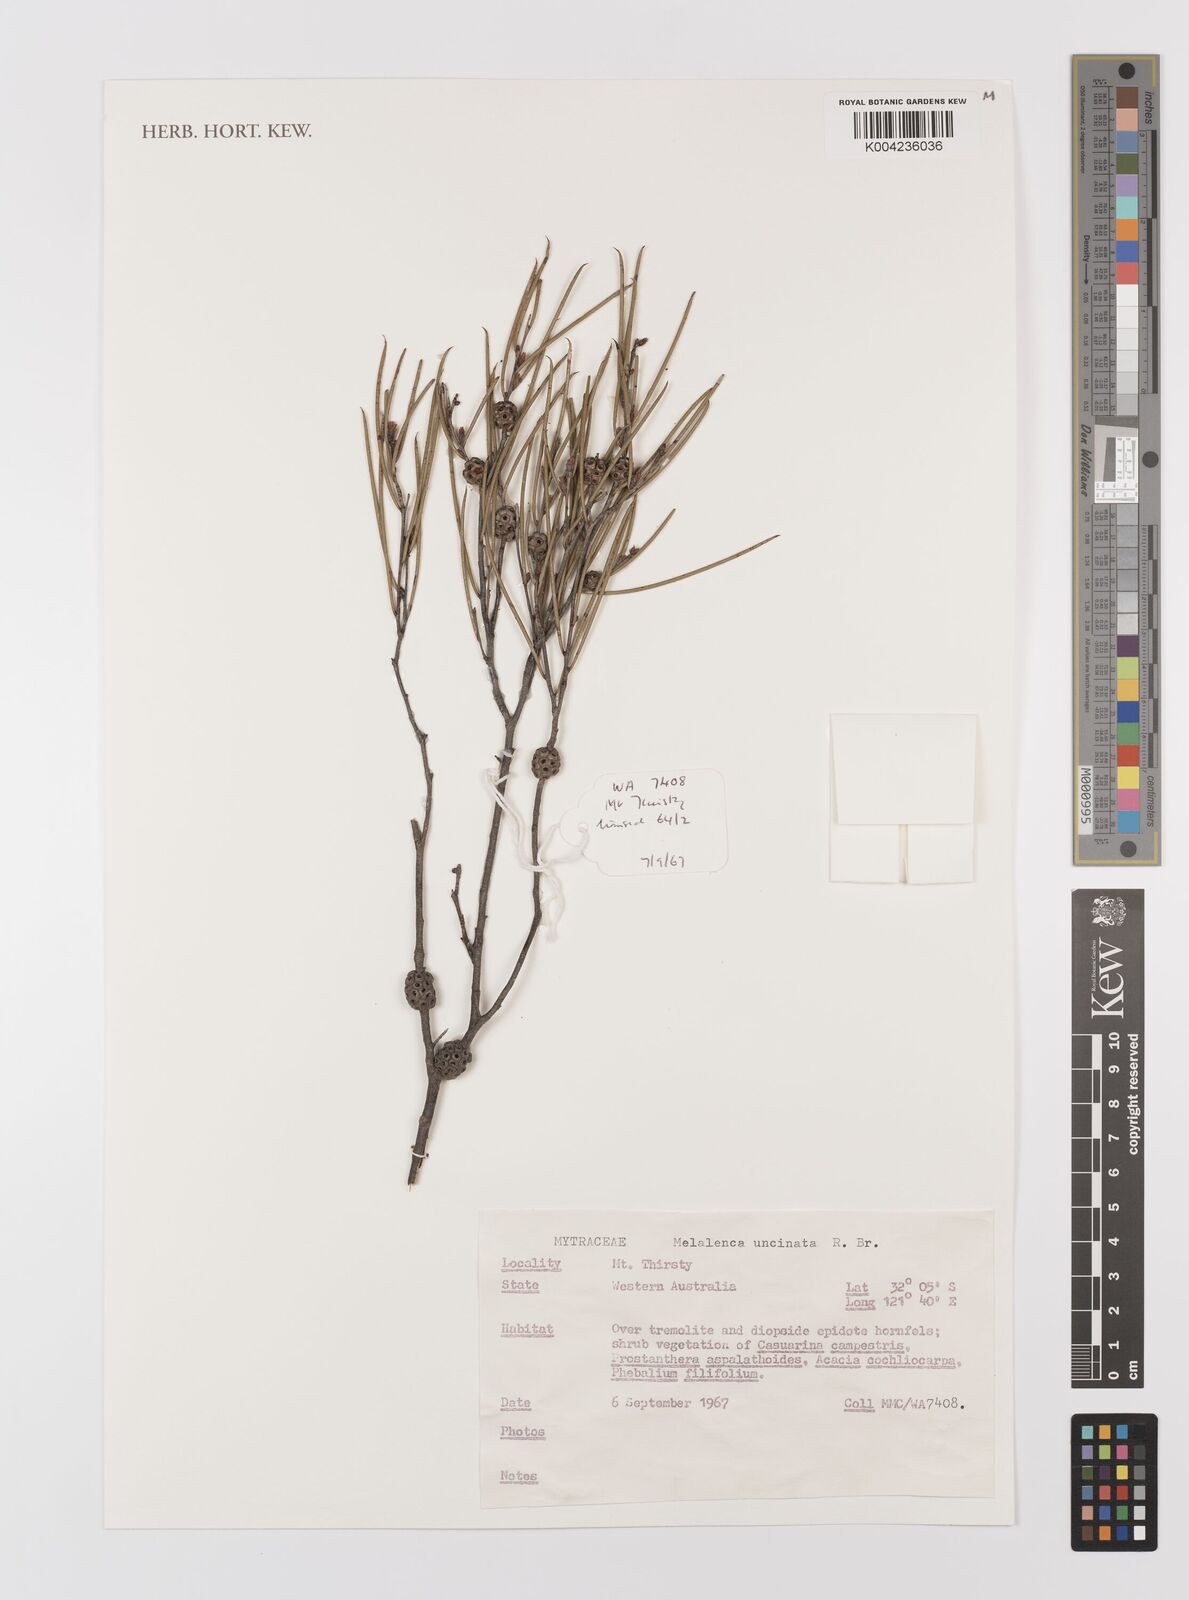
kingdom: Plantae
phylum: Tracheophyta
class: Magnoliopsida
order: Myrtales
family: Myrtaceae
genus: Melaleuca
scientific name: Melaleuca uncinata
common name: Broom honey myrtle
